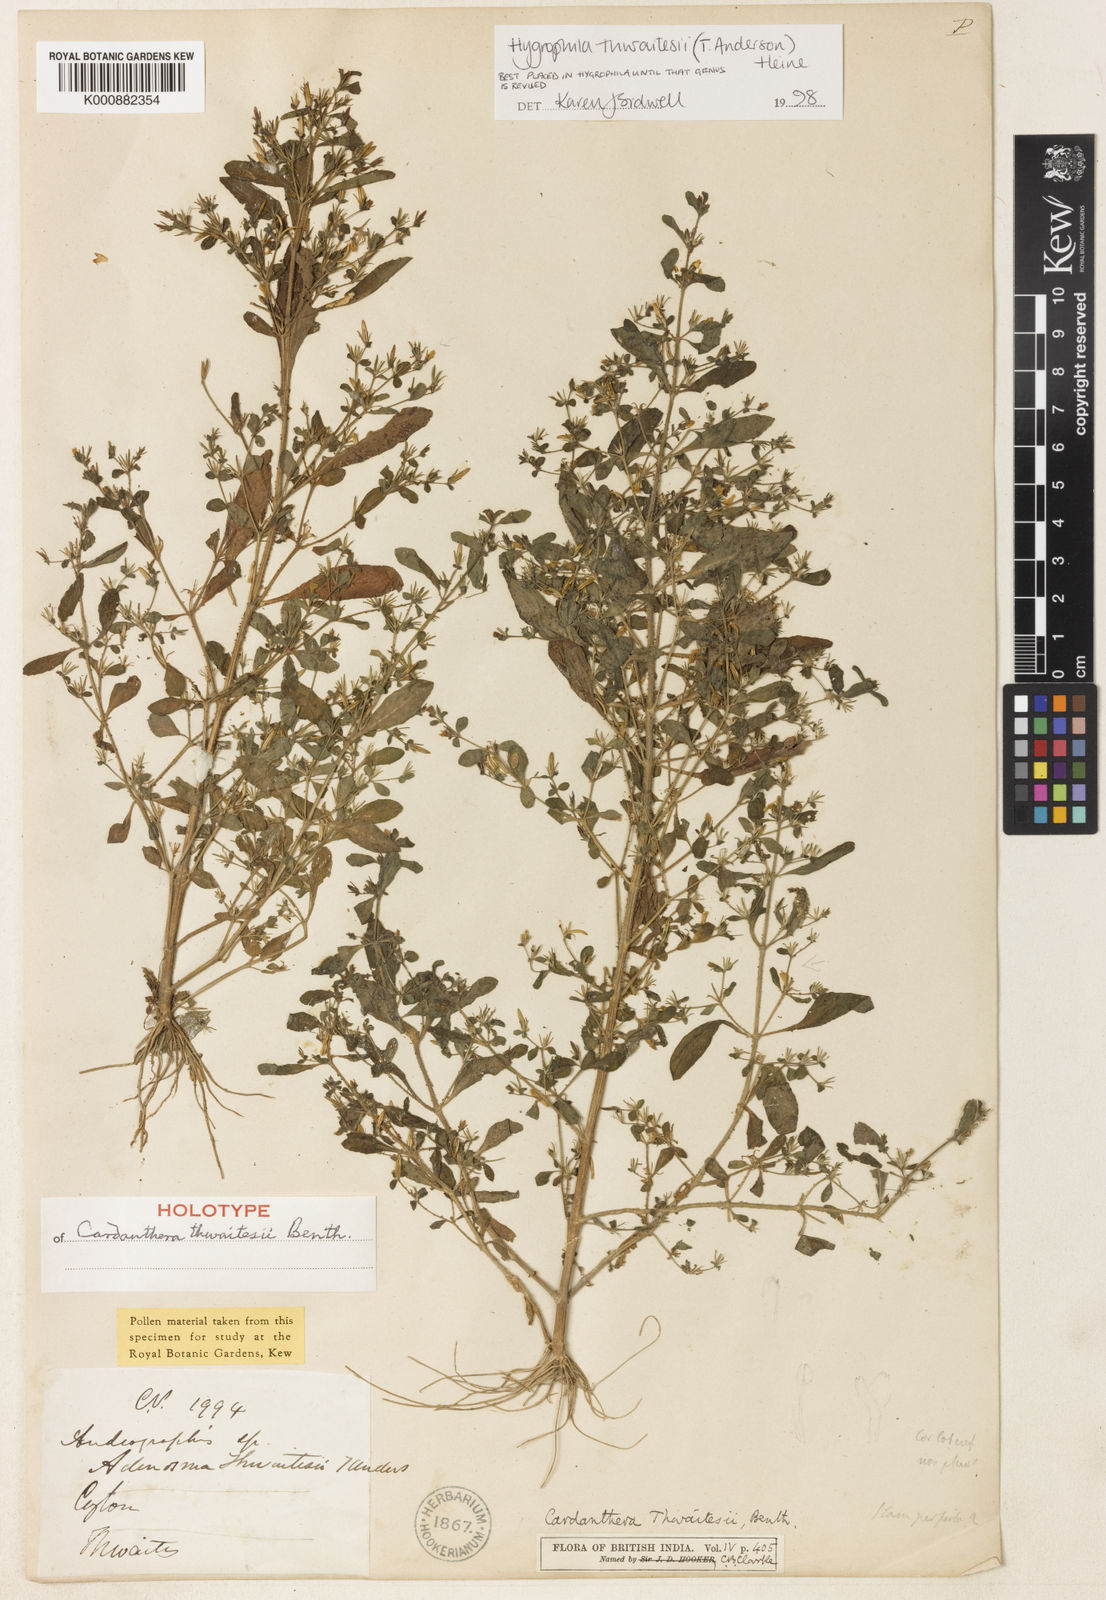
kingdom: Plantae
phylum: Tracheophyta
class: Magnoliopsida
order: Lamiales
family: Acanthaceae
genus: Hygrophila
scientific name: Hygrophila thwaitesii
